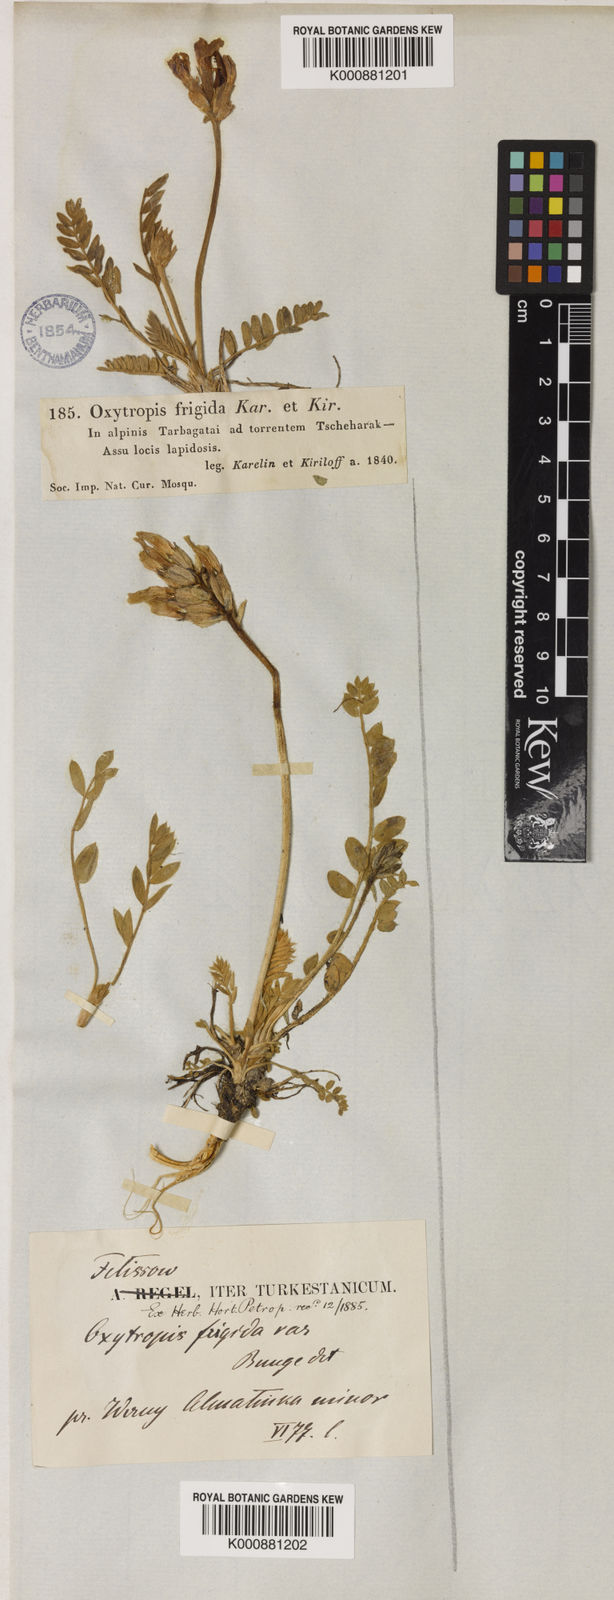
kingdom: Plantae
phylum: Tracheophyta
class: Magnoliopsida
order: Fabales
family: Fabaceae
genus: Oxytropis
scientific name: Oxytropis frigida
